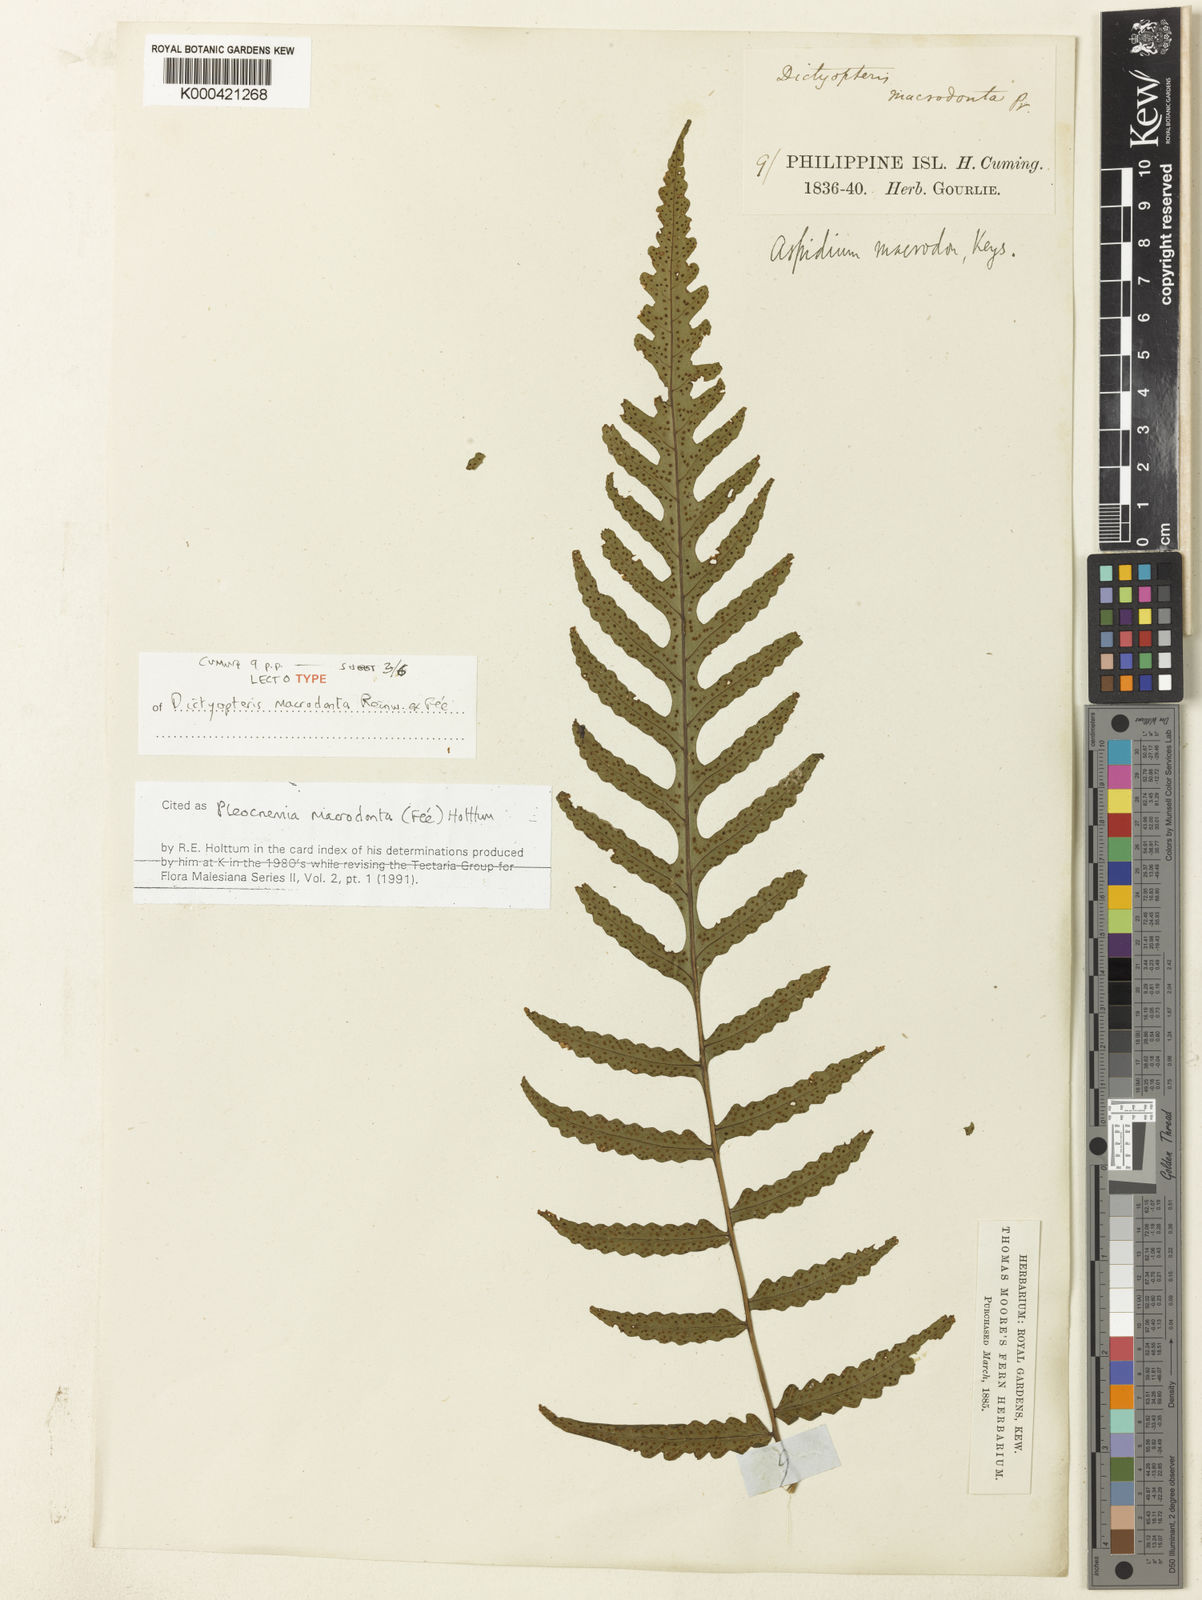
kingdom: Plantae
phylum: Tracheophyta
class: Polypodiopsida
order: Polypodiales
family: Dryopteridaceae
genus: Pleocnemia
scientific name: Pleocnemia
